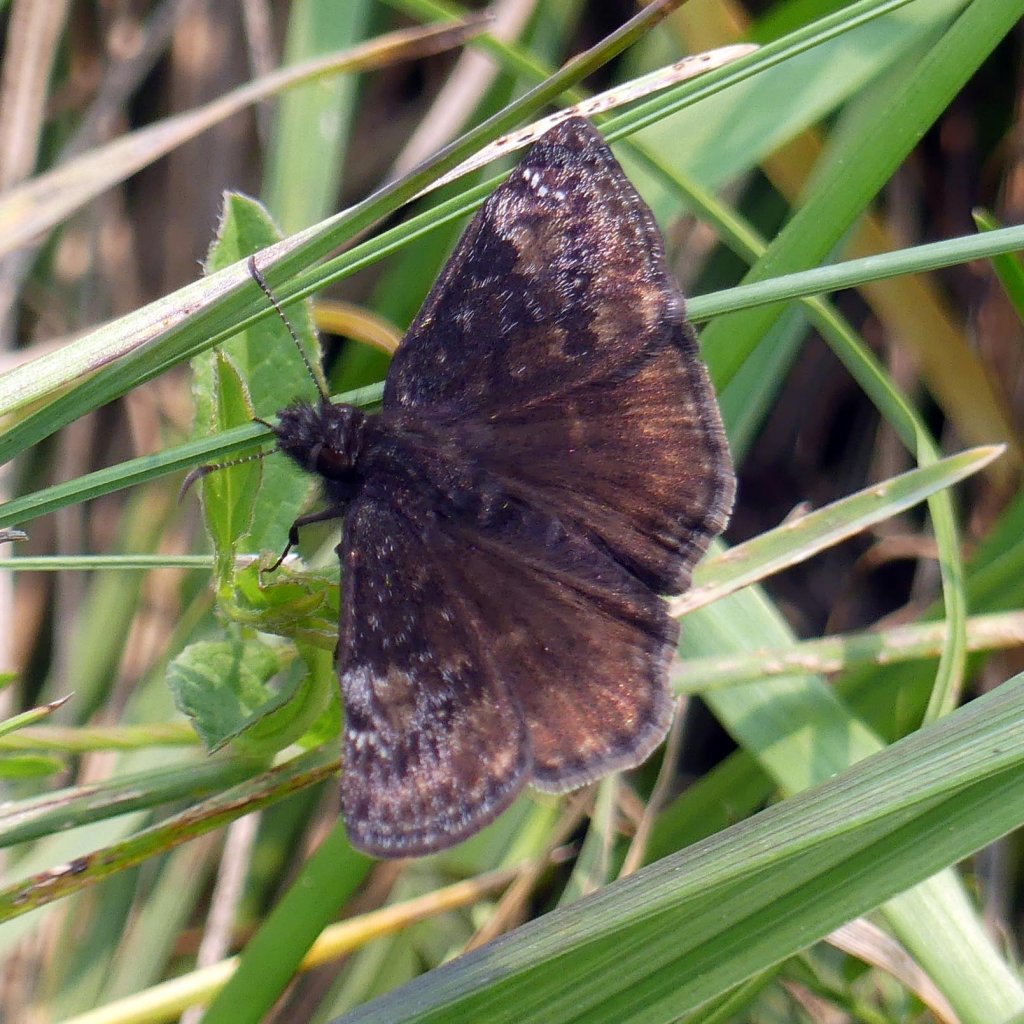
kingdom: Animalia
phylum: Arthropoda
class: Insecta
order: Lepidoptera
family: Hesperiidae
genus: Gesta
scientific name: Gesta
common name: Wild Indigo Duskywing
